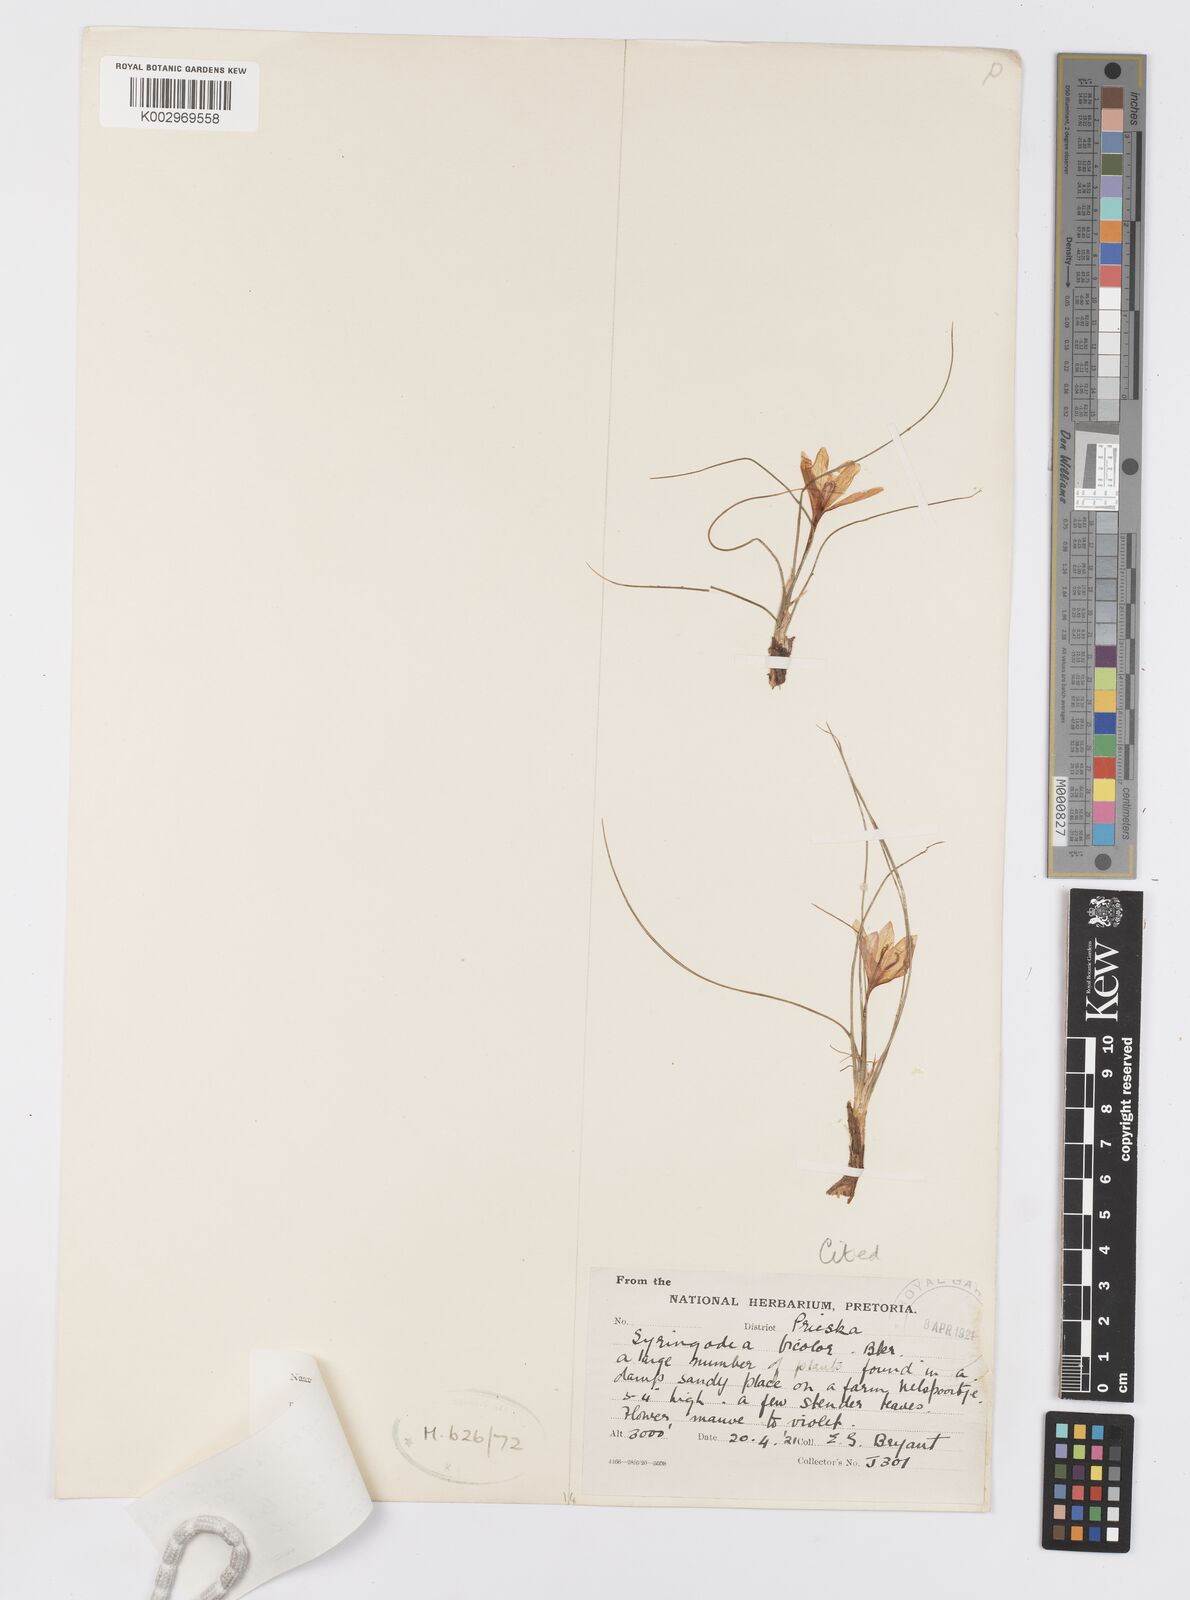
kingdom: Plantae
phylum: Tracheophyta
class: Liliopsida
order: Asparagales
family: Iridaceae
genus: Syringodea
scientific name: Syringodea concolor
